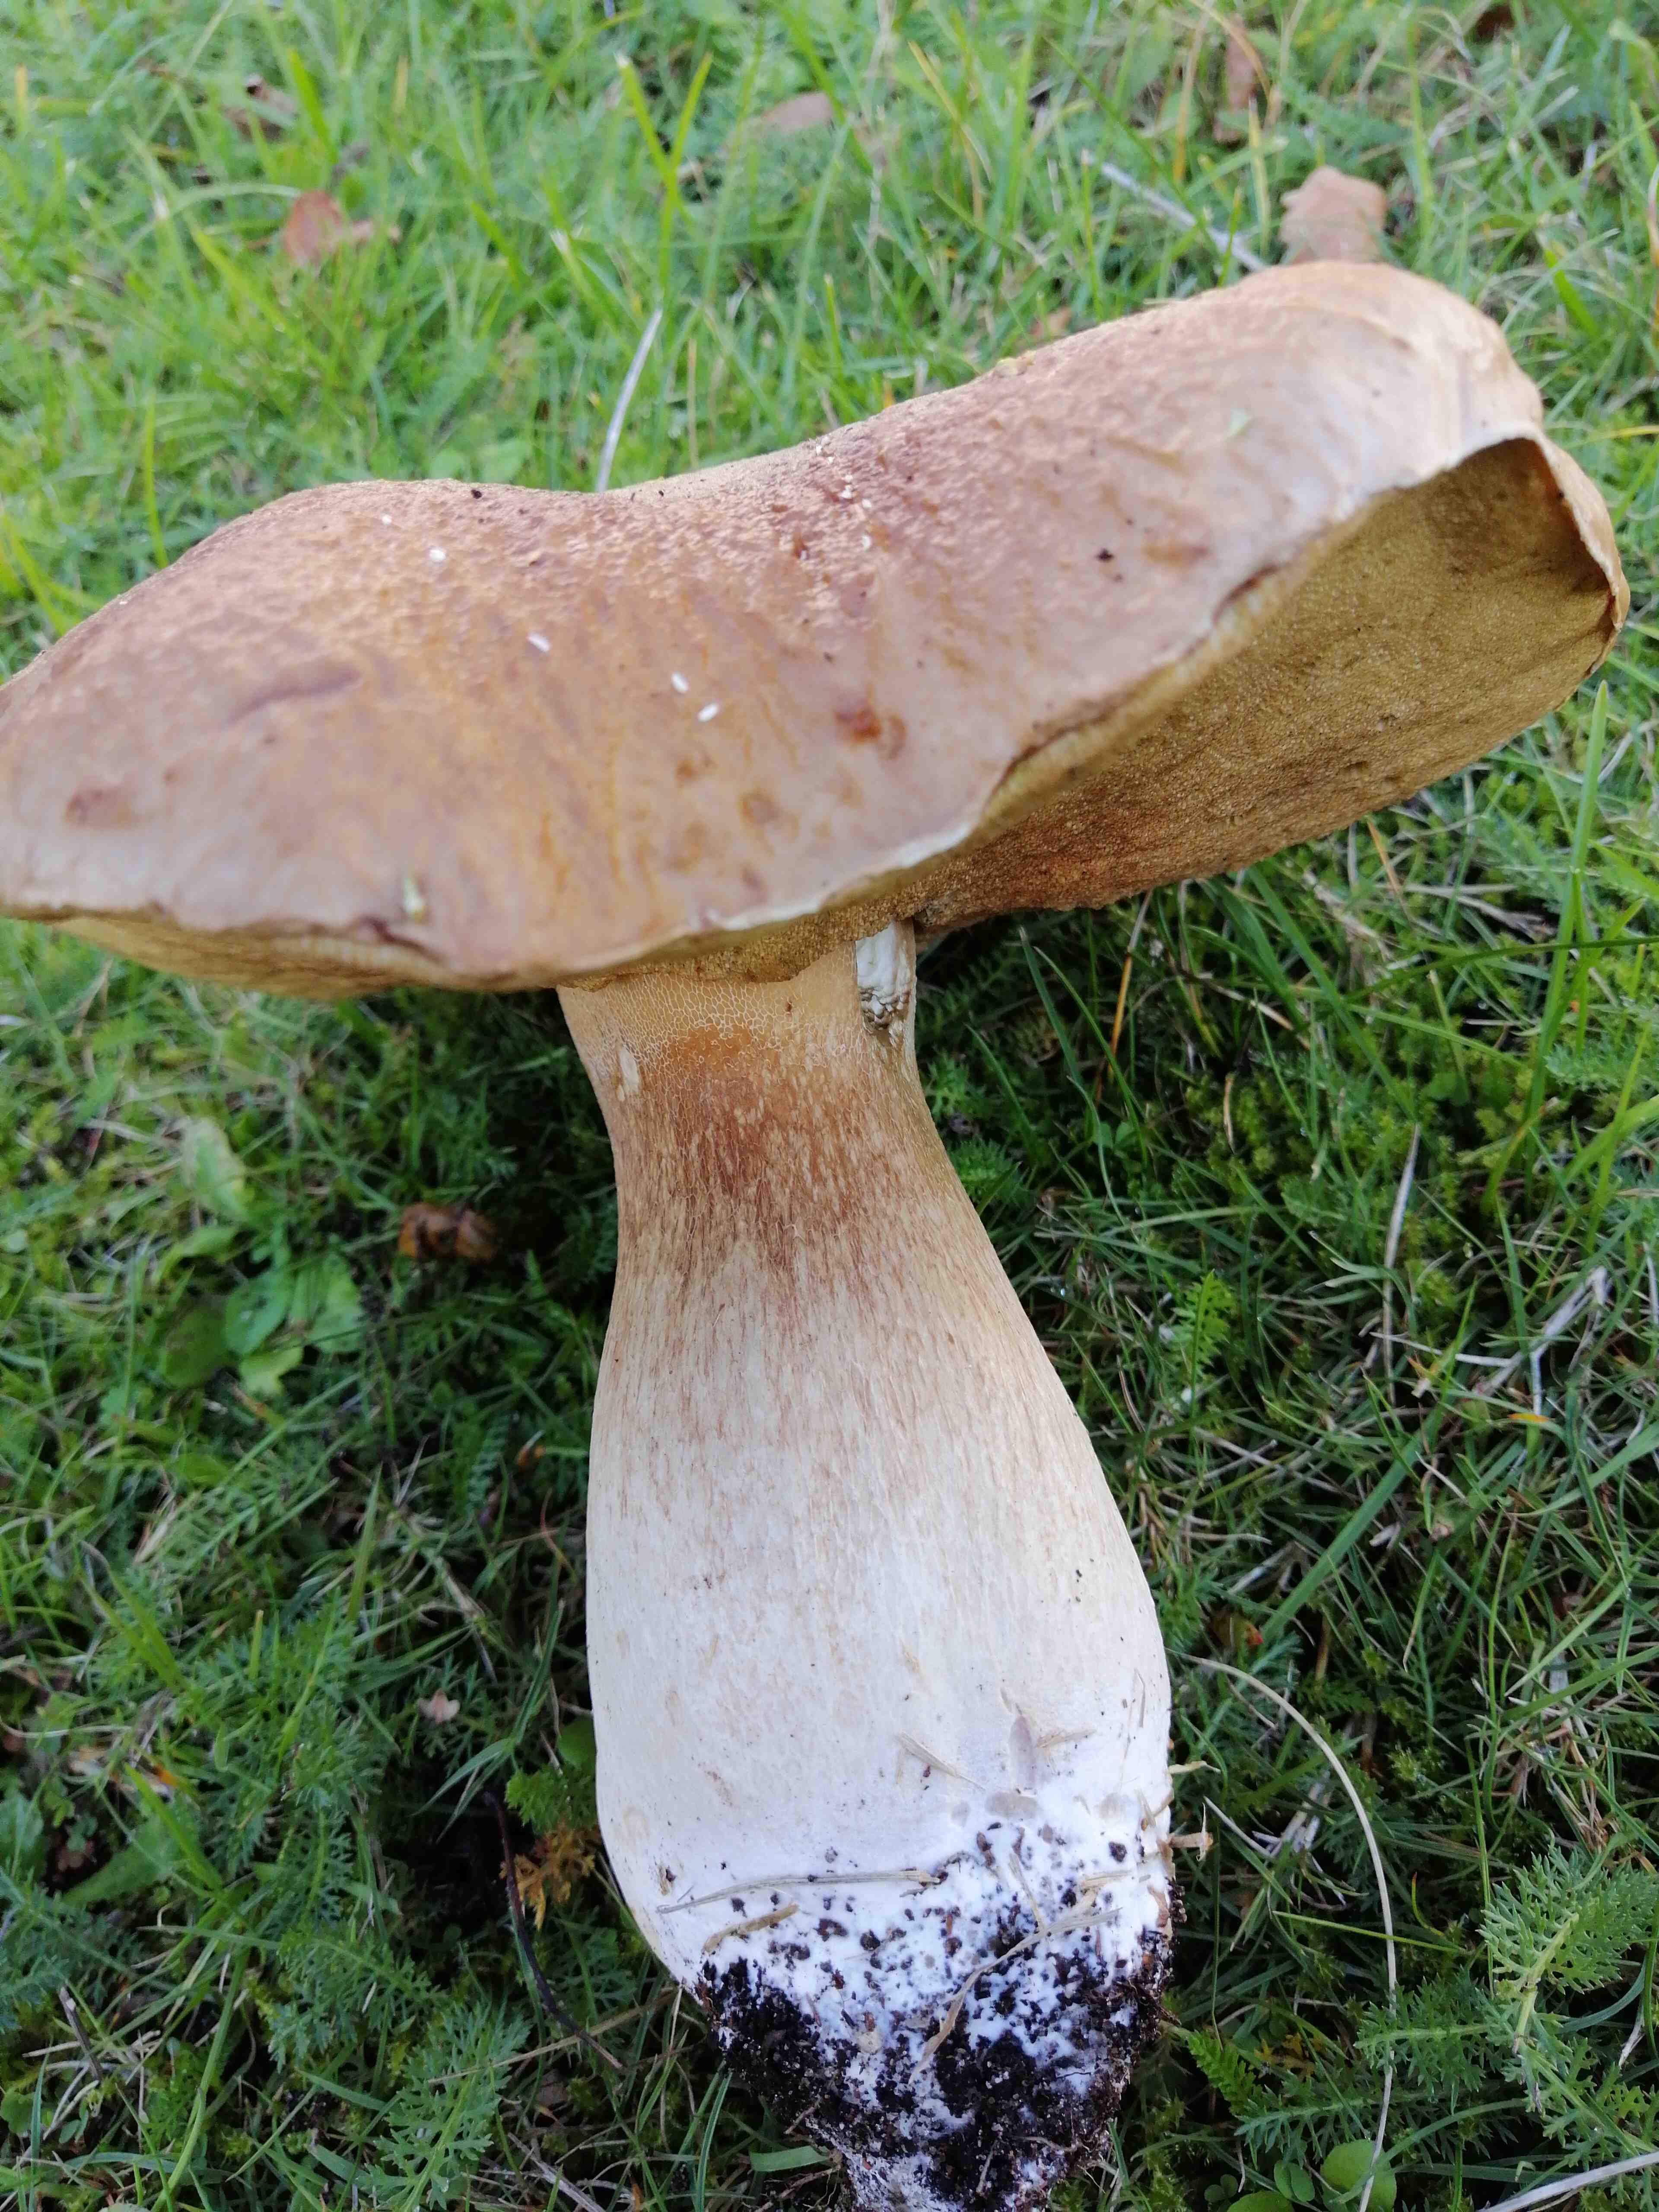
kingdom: Fungi
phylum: Basidiomycota
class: Agaricomycetes
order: Boletales
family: Boletaceae
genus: Boletus
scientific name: Boletus edulis
